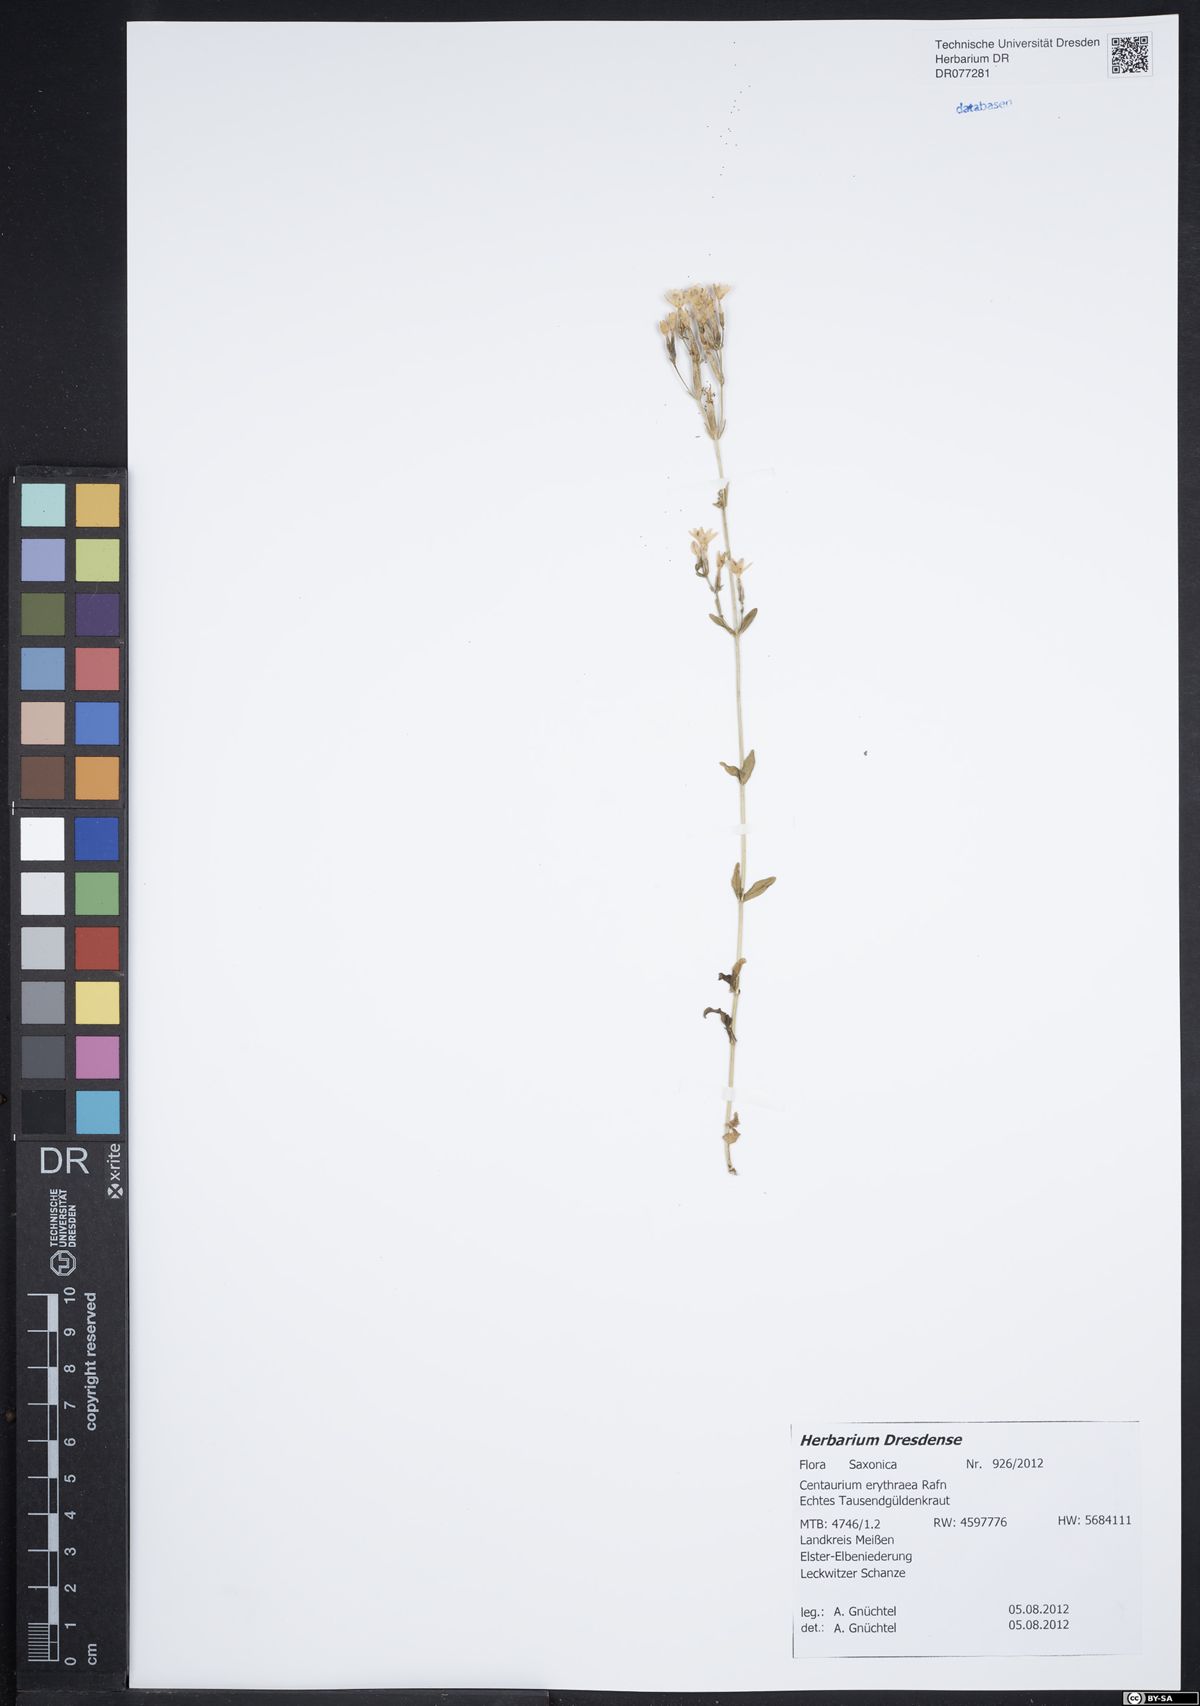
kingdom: Plantae
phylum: Tracheophyta
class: Magnoliopsida
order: Gentianales
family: Gentianaceae
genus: Centaurium
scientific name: Centaurium erythraea
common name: Common centaury
